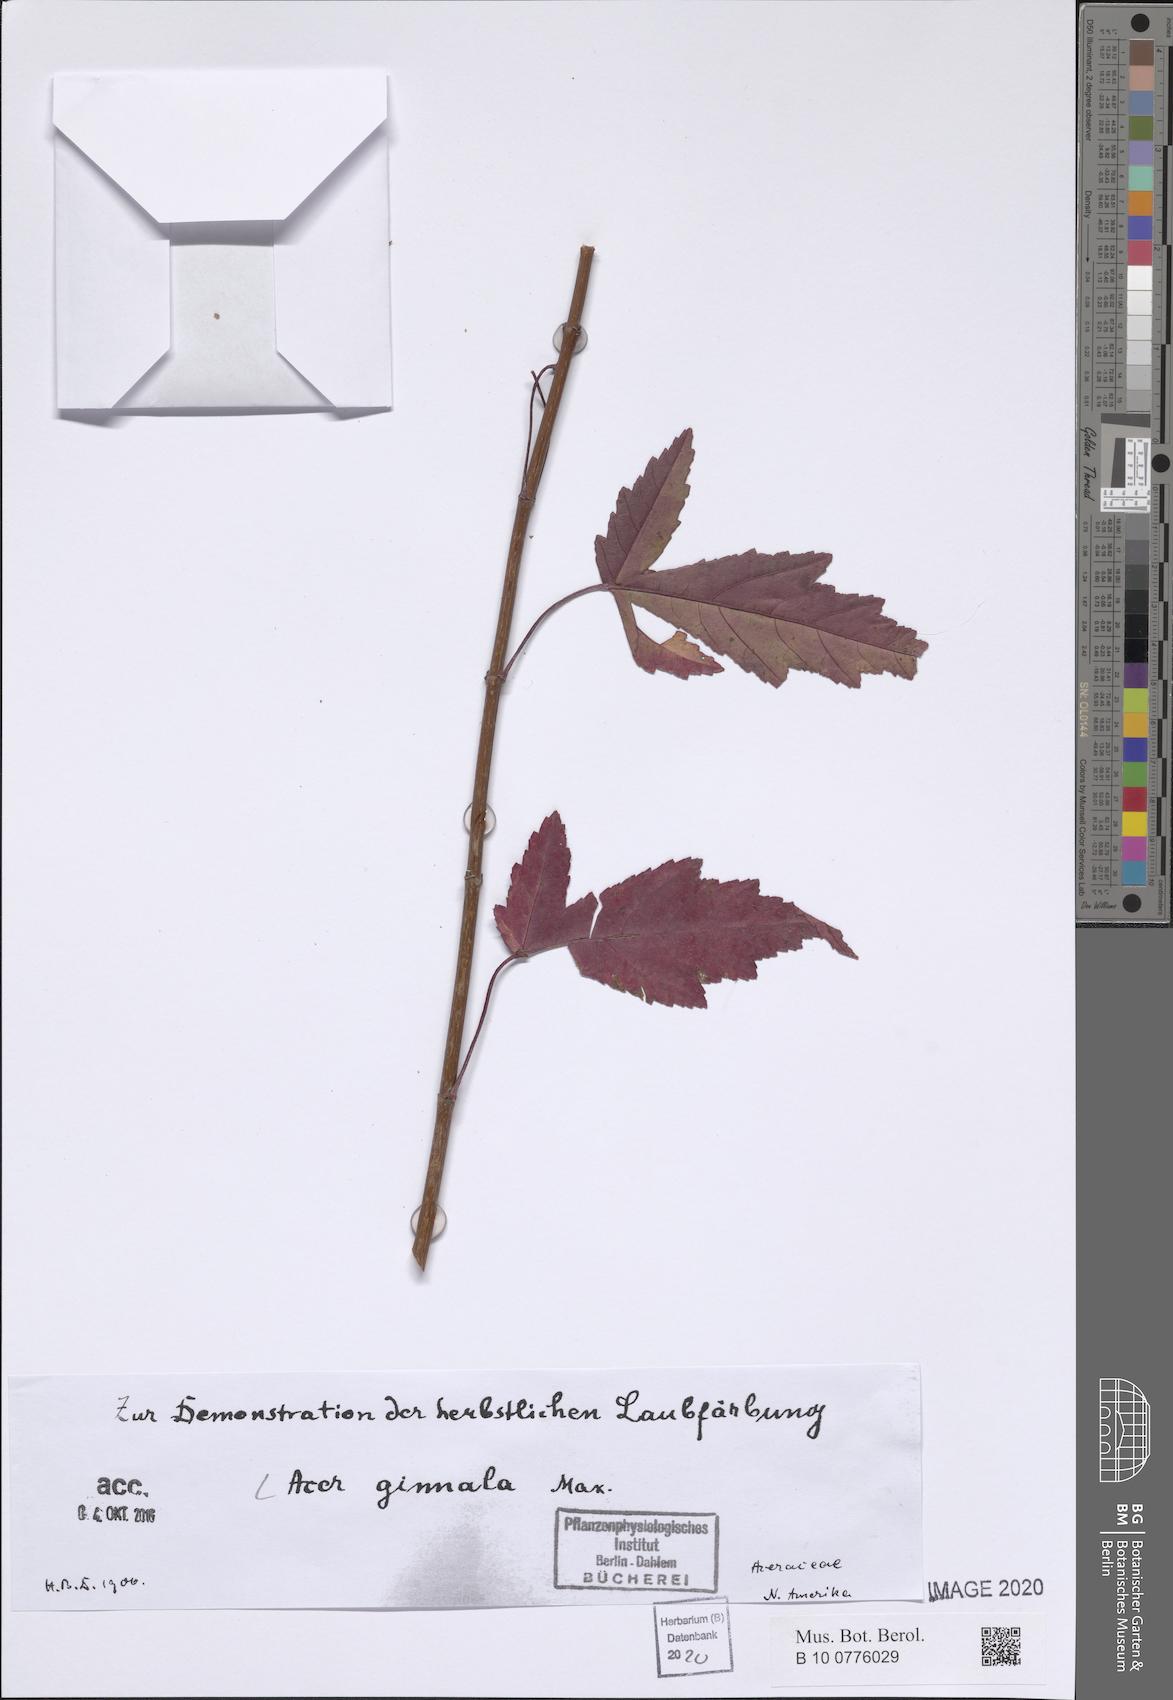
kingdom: Plantae
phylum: Tracheophyta
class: Magnoliopsida
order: Sapindales
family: Sapindaceae
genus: Acer
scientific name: Acer tataricum
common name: Tartar maple
